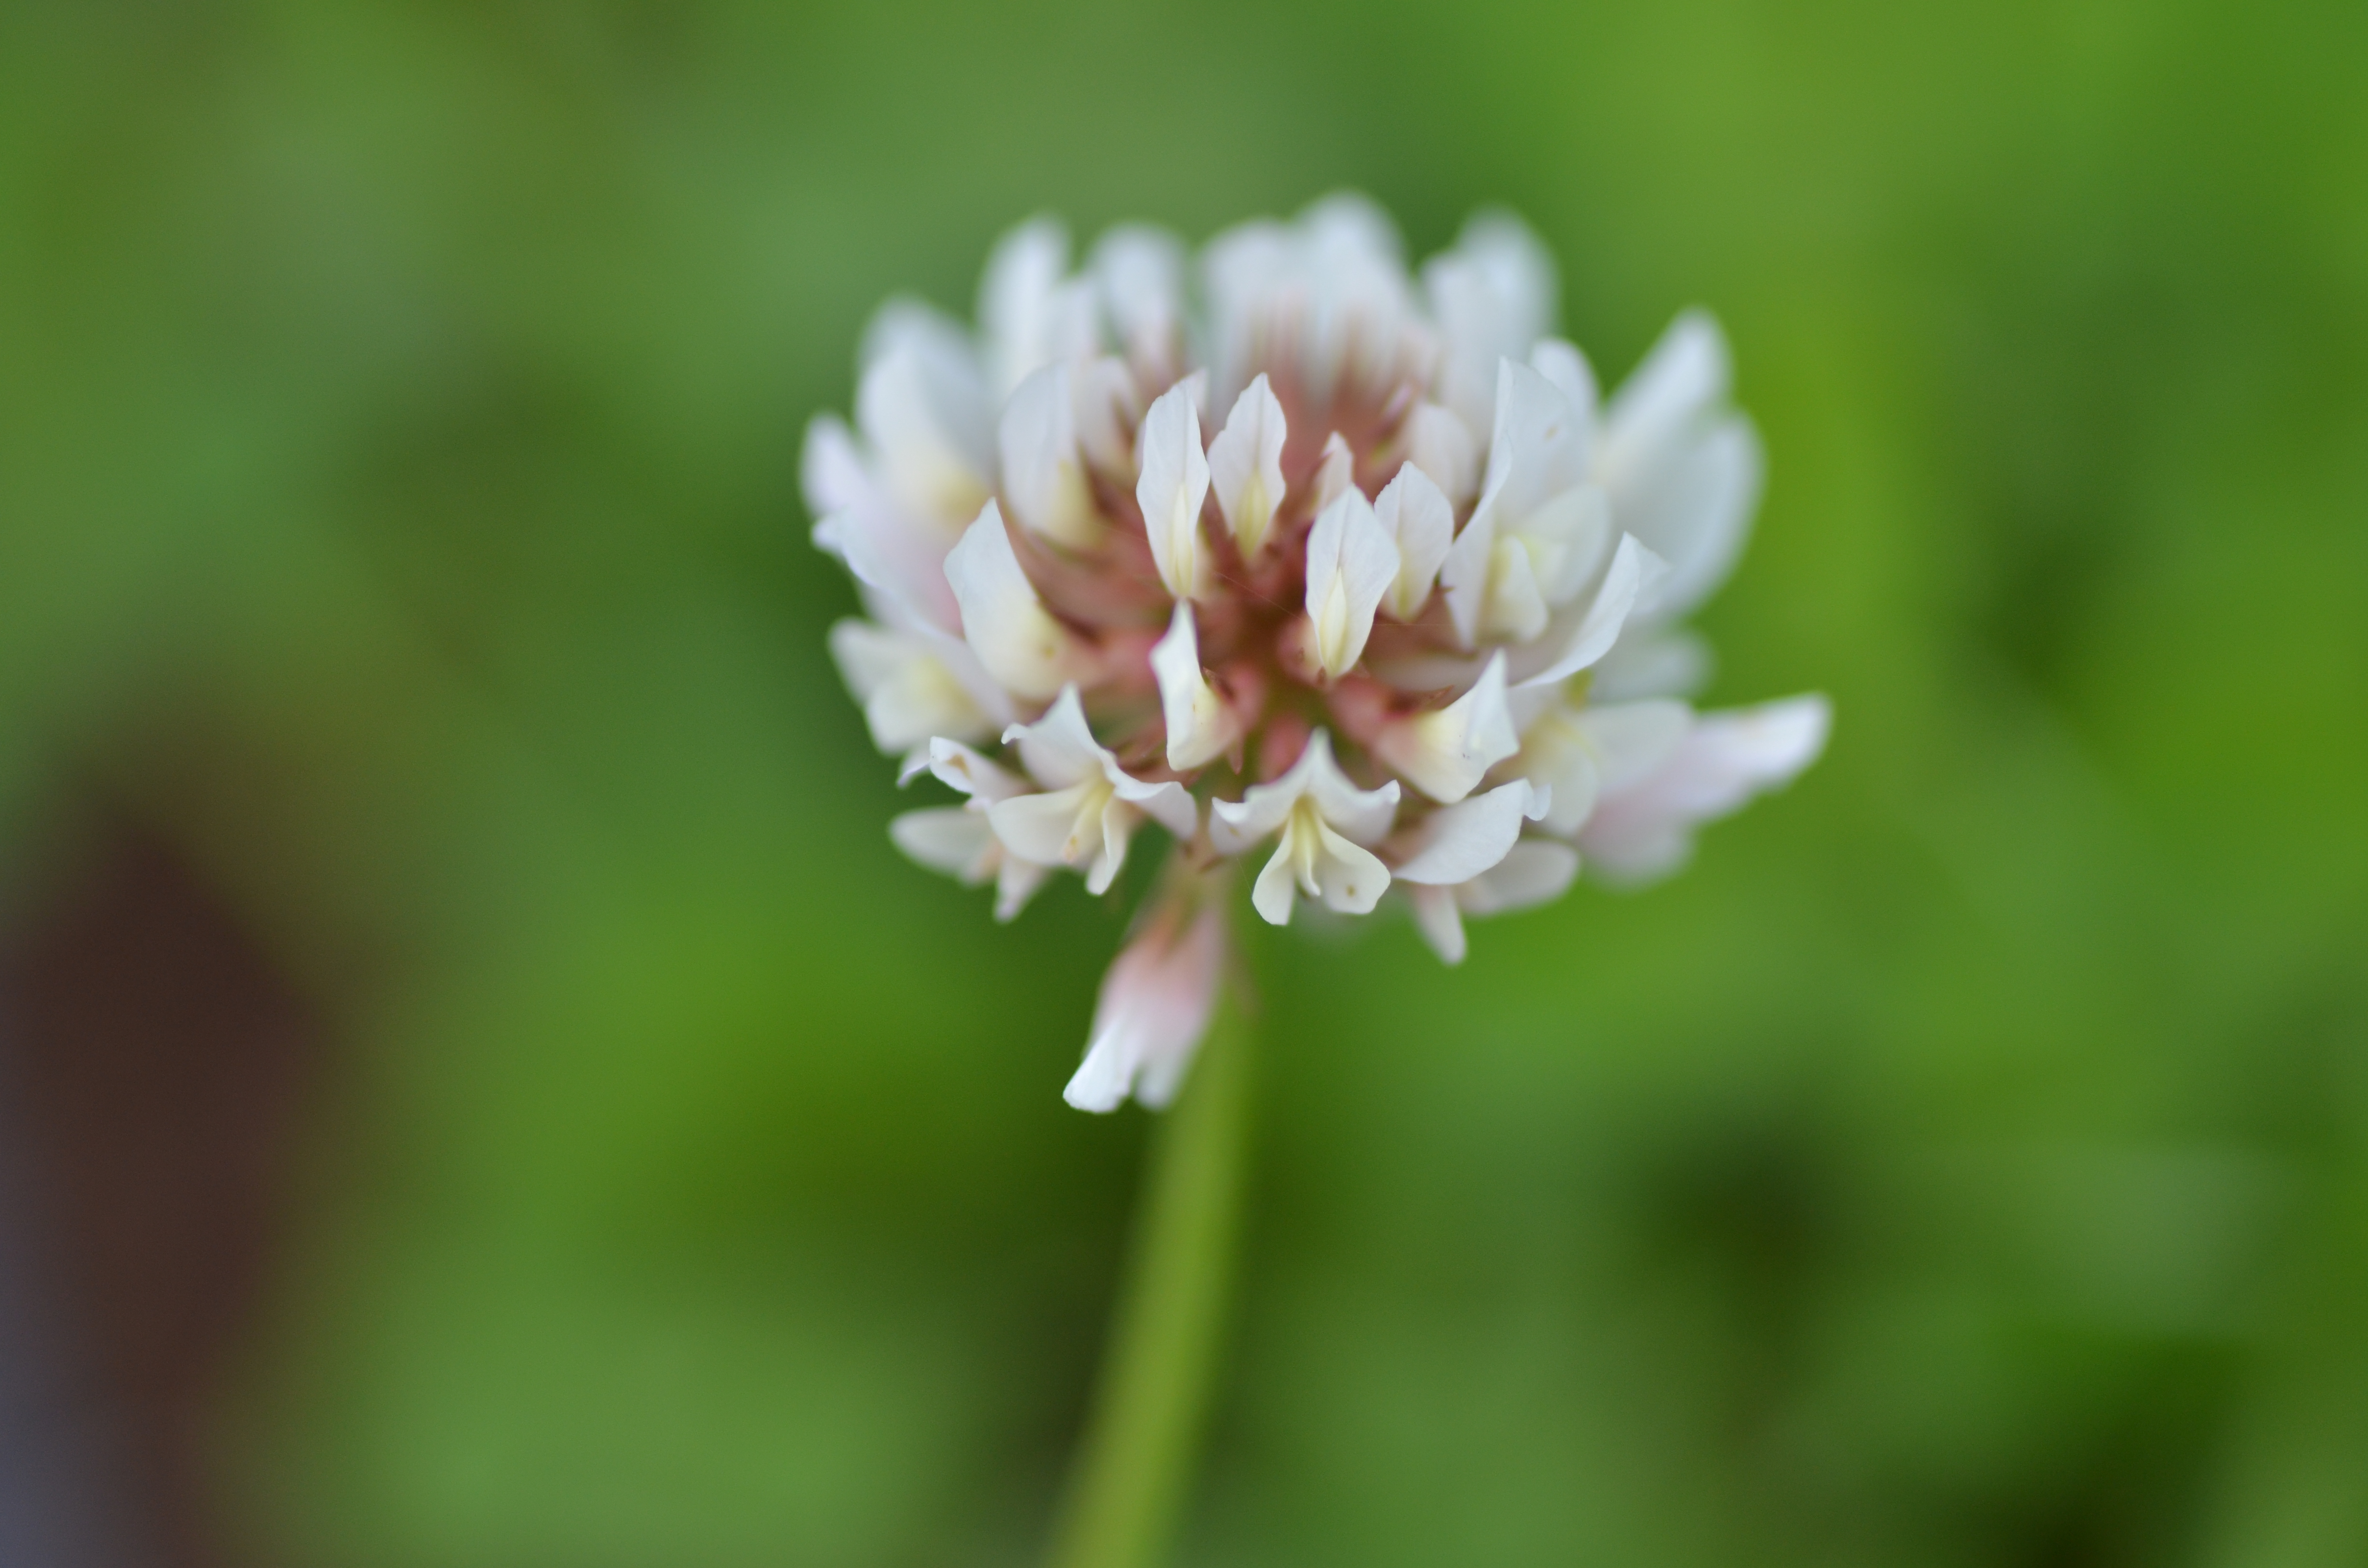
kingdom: Plantae
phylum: Tracheophyta
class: Magnoliopsida
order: Fabales
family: Fabaceae
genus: Trifolium
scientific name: Trifolium repens
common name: White clover
